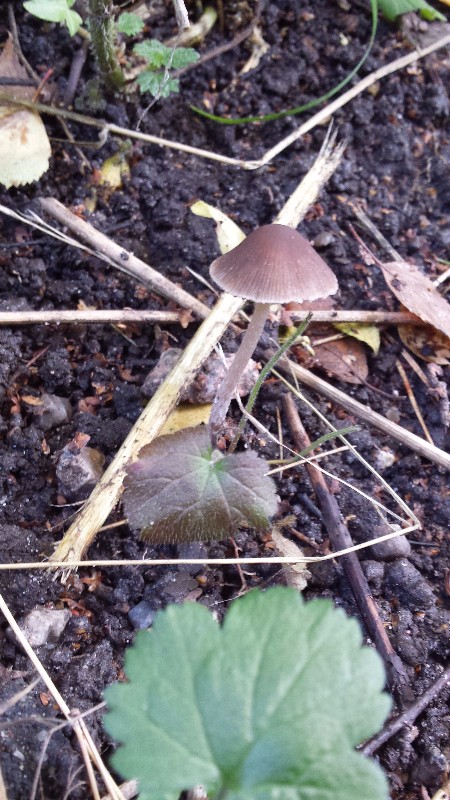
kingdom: Fungi
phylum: Basidiomycota
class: Agaricomycetes
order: Agaricales
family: Psathyrellaceae
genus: Psathyrella
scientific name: Psathyrella
